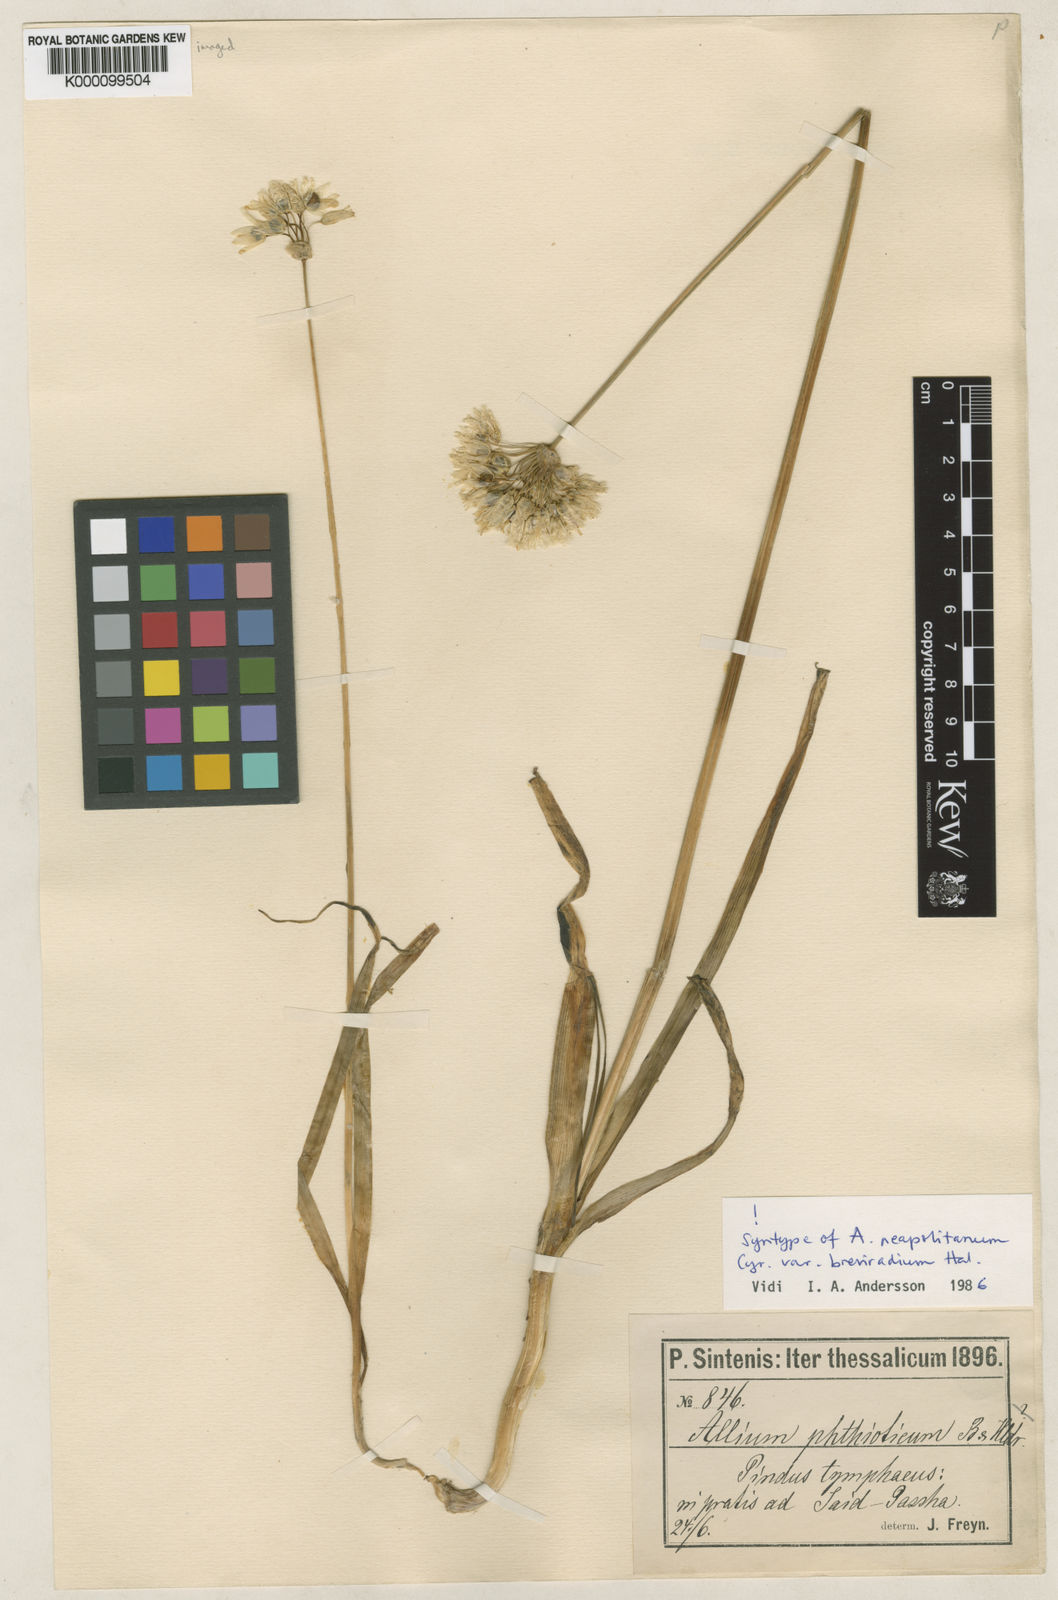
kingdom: Plantae
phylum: Tracheophyta
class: Liliopsida
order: Asparagales
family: Amaryllidaceae
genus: Allium
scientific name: Allium phthioticum
